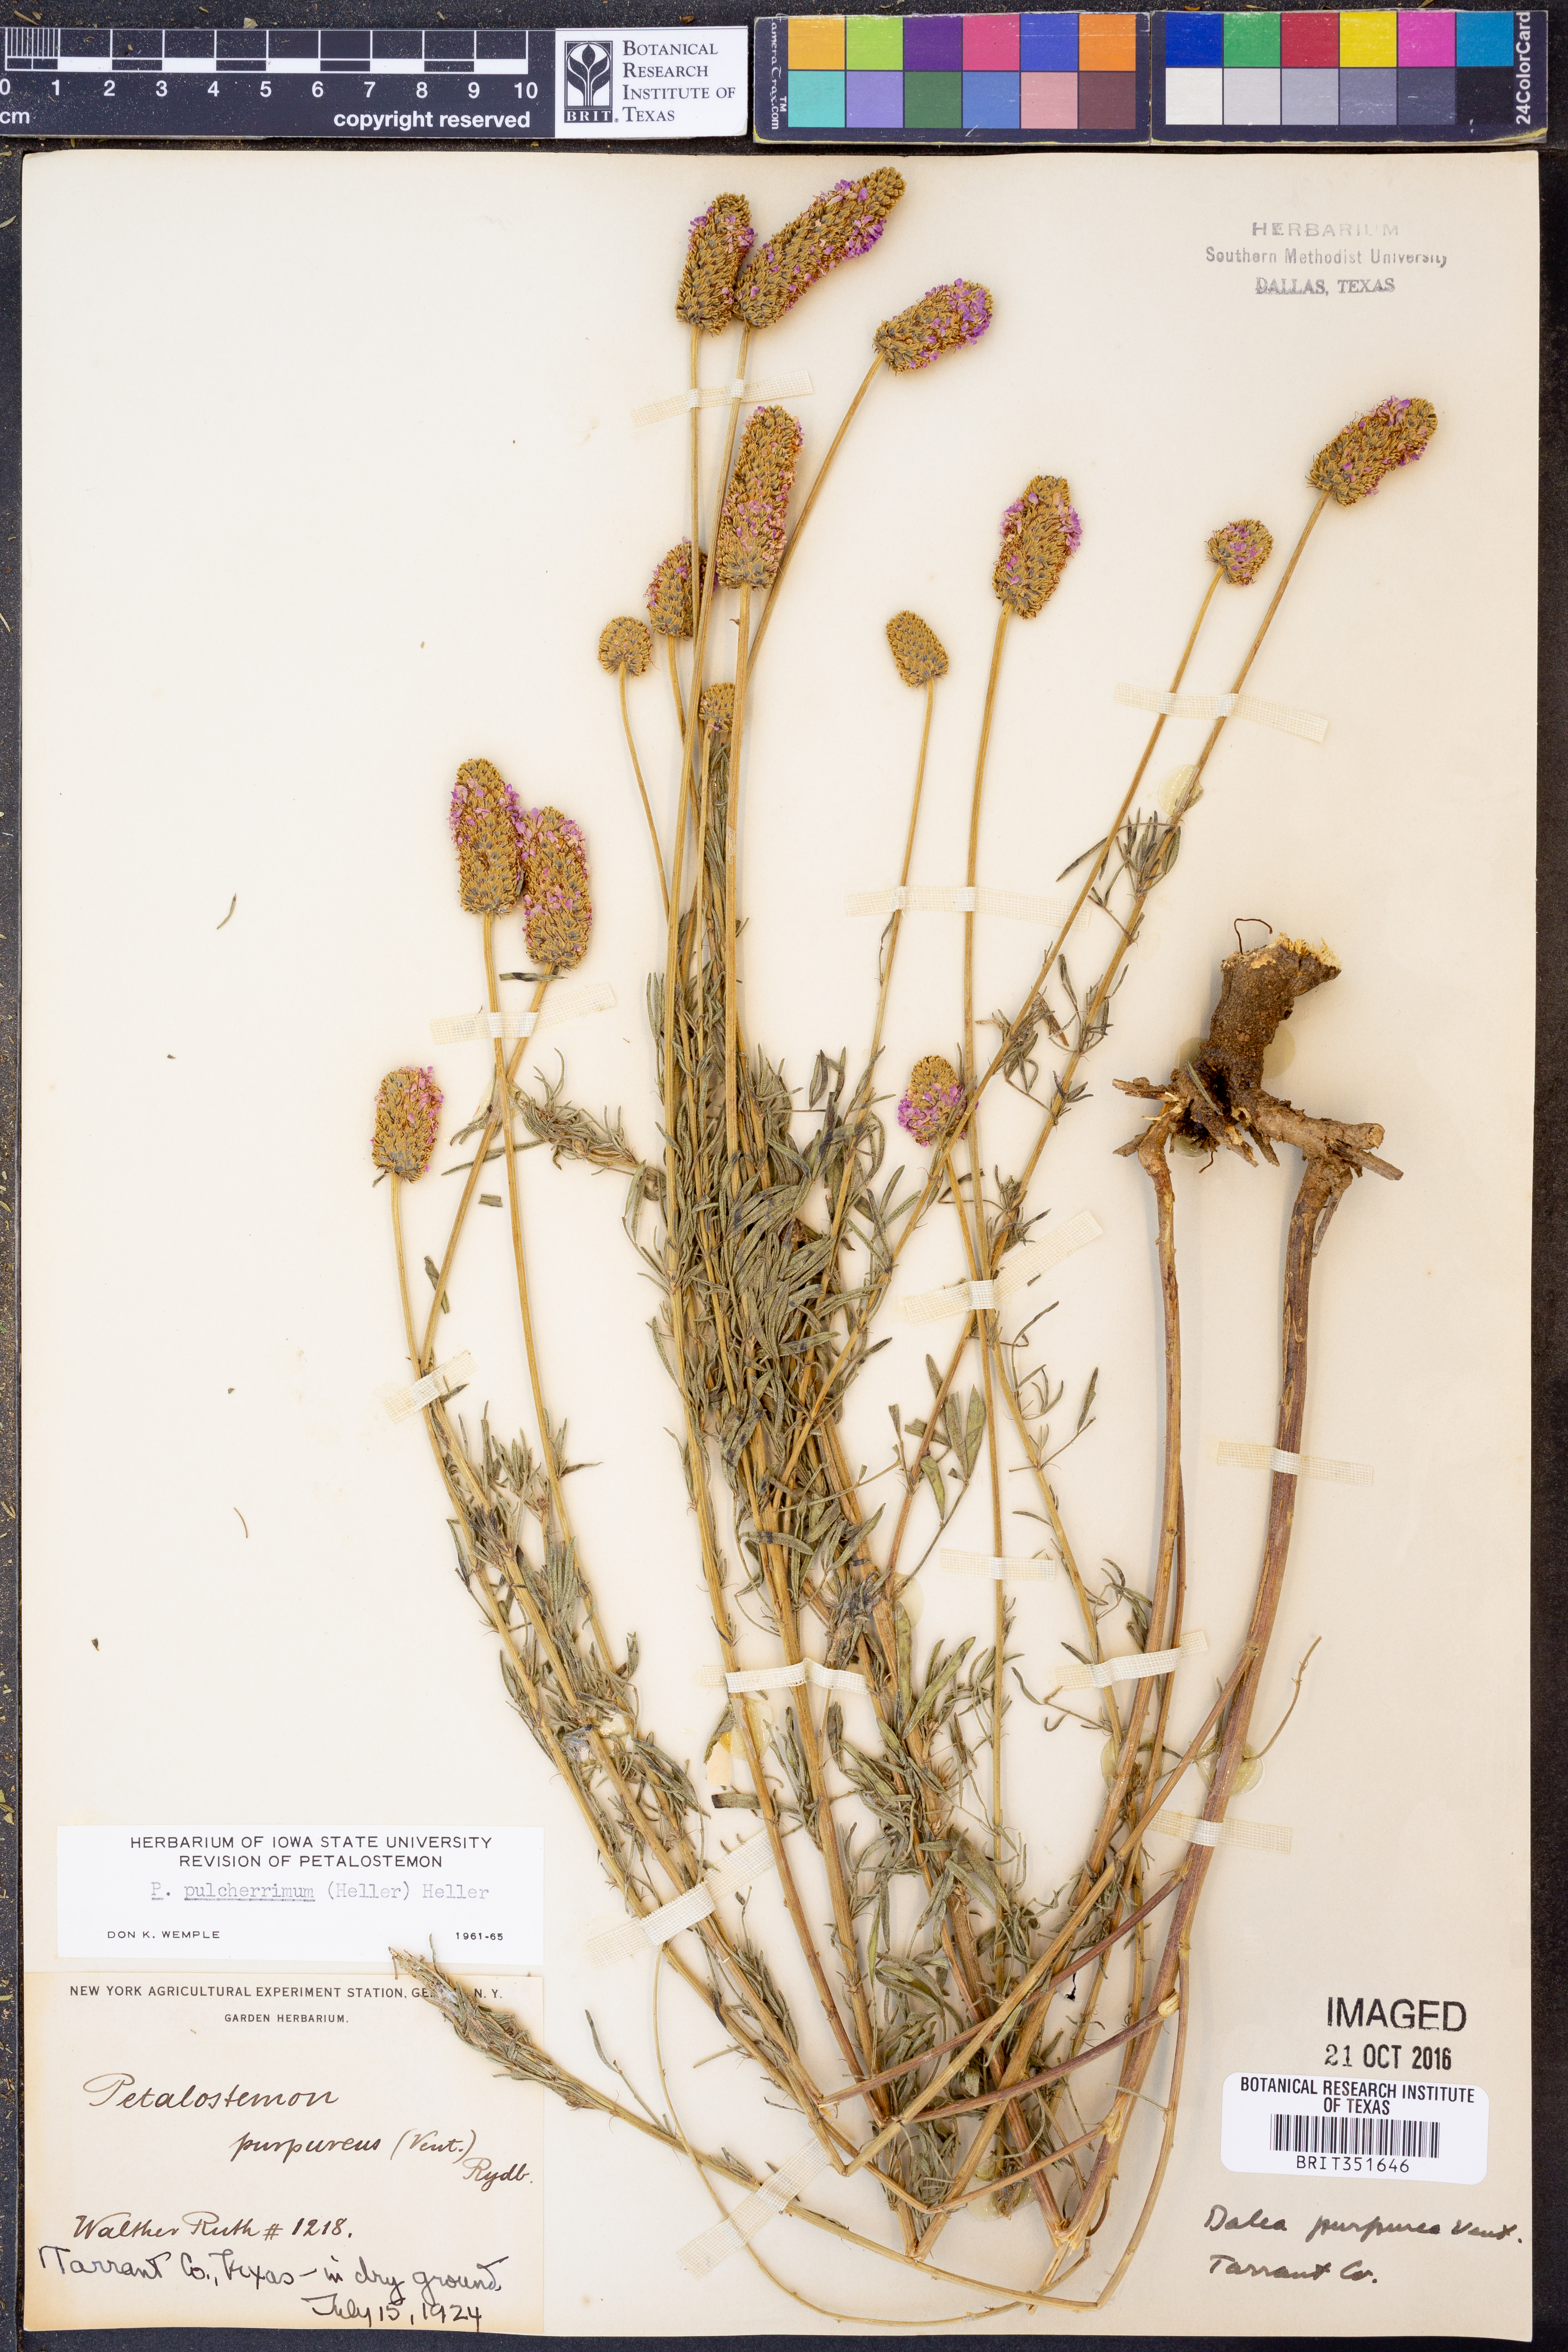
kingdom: Plantae
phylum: Tracheophyta
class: Magnoliopsida
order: Fabales
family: Fabaceae
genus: Dalea
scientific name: Dalea compacta
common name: Compact prairie-clover
